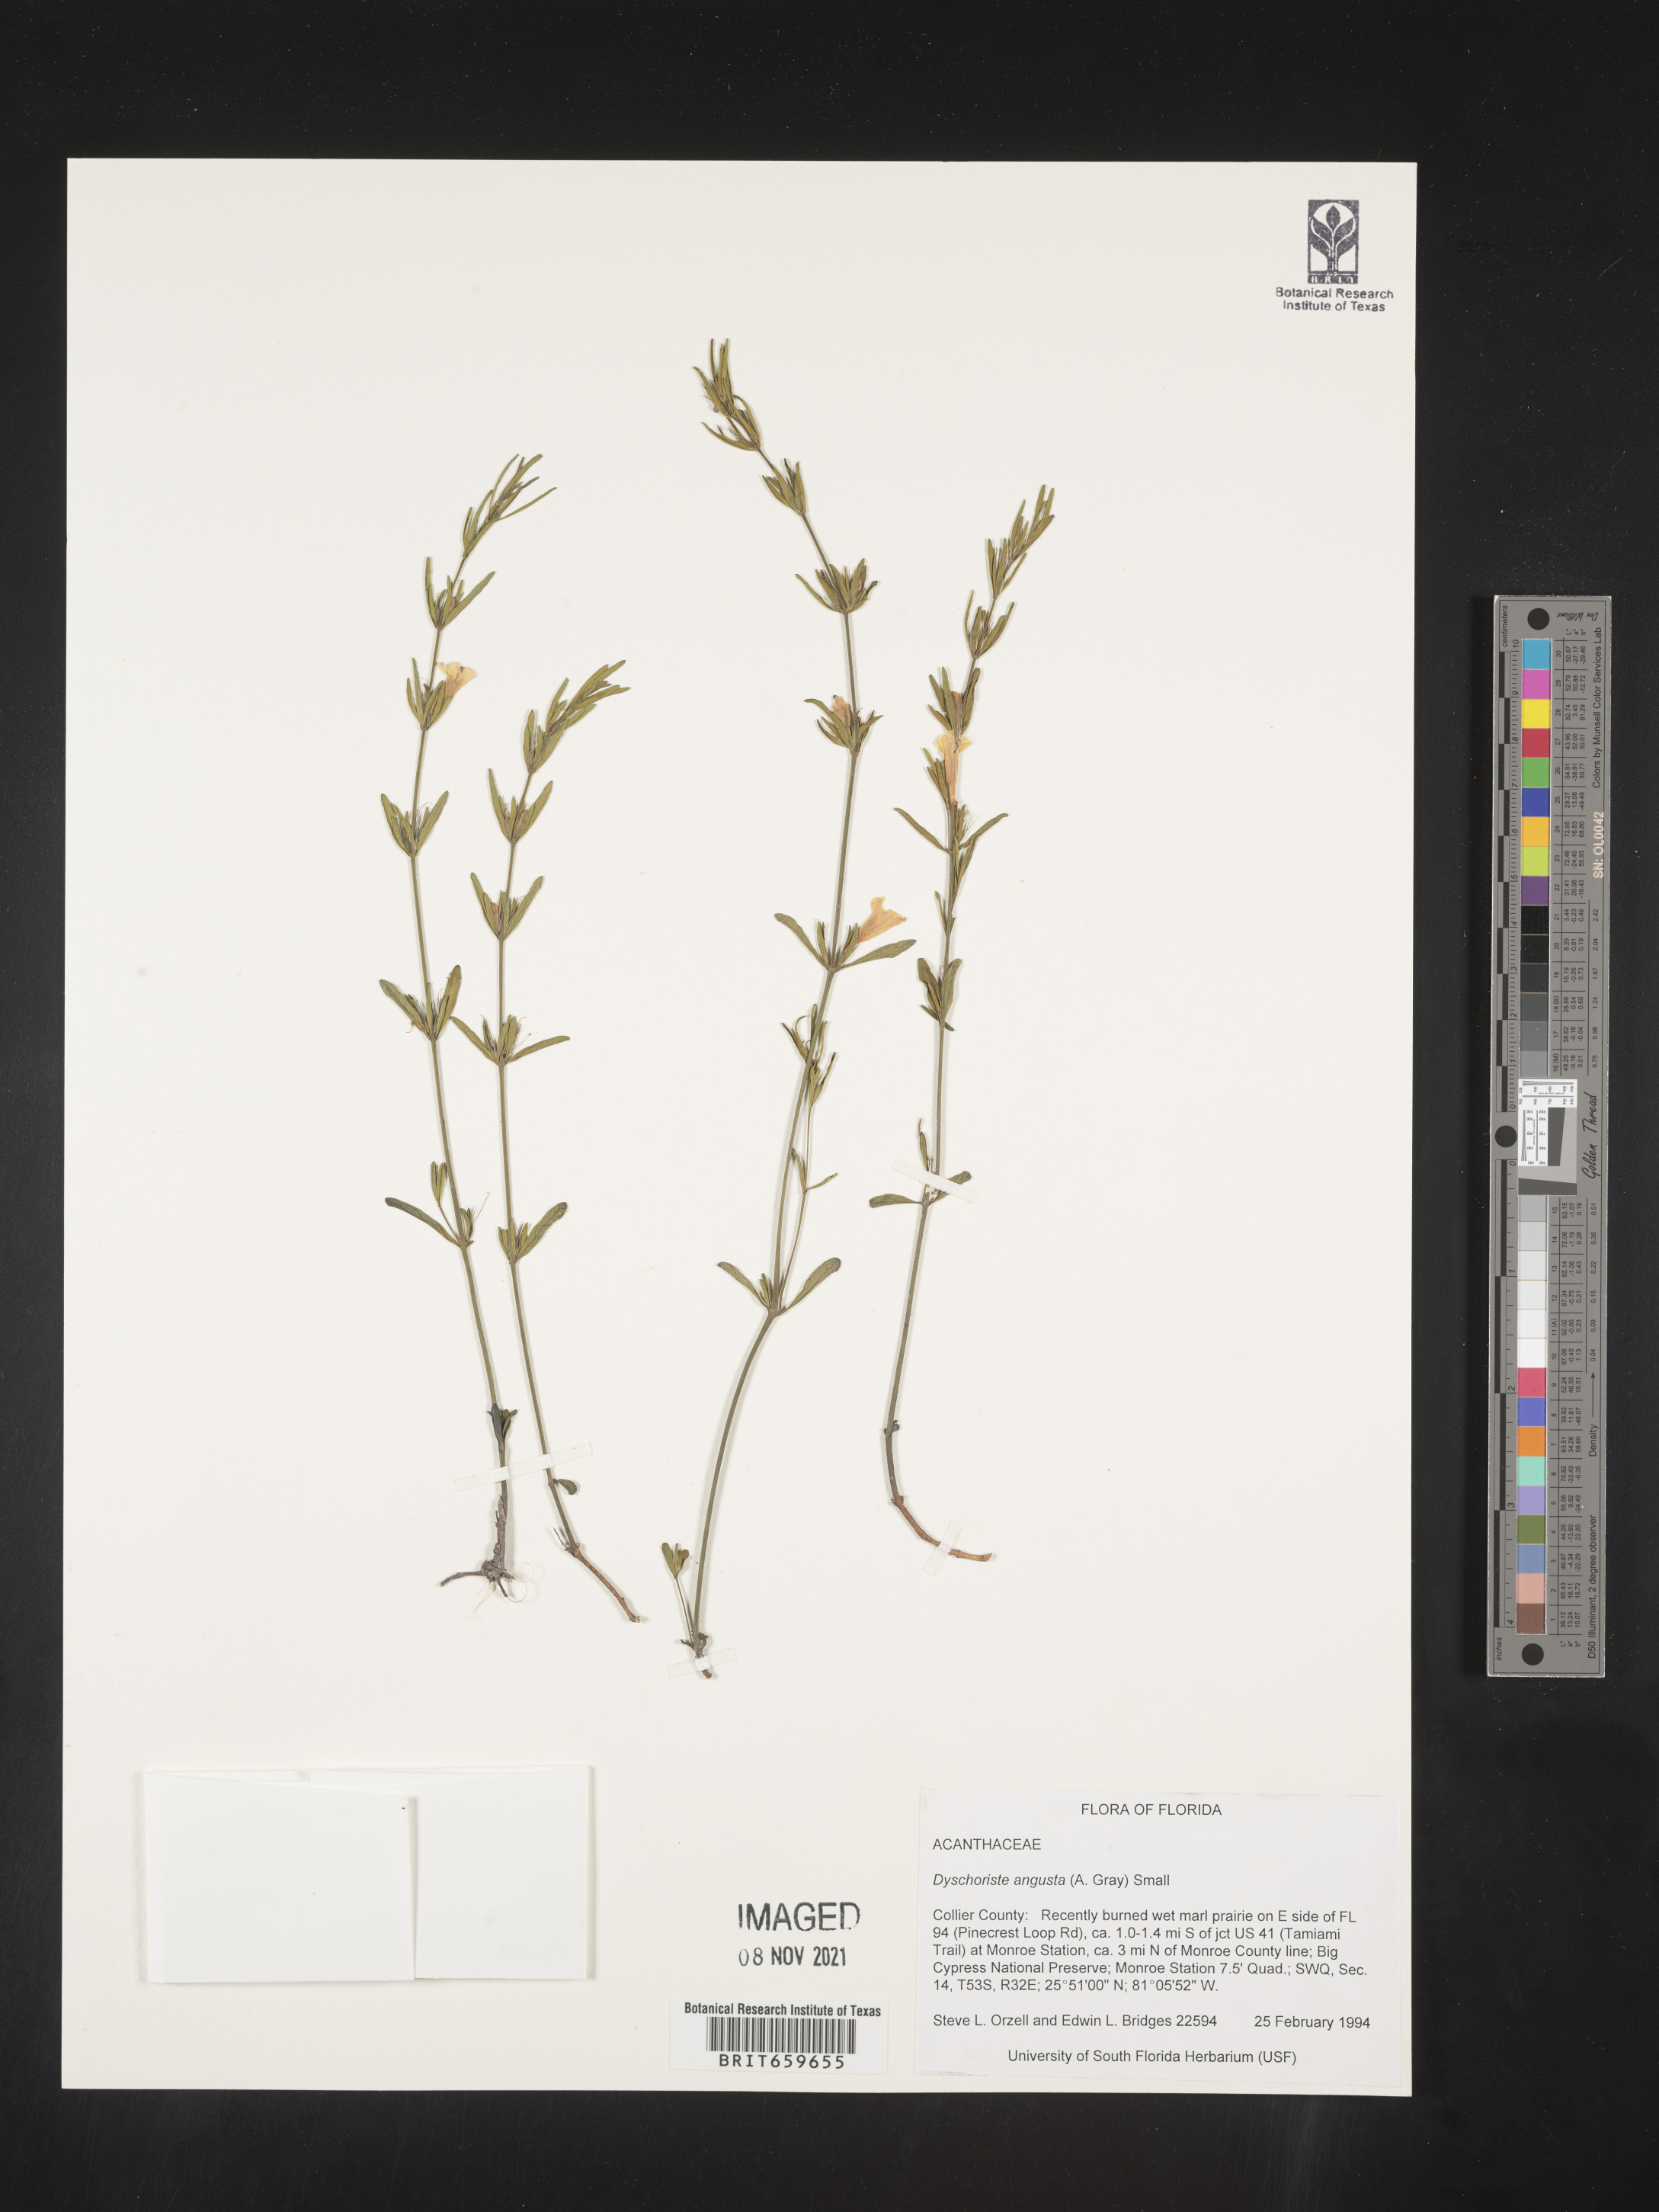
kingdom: Plantae
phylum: Tracheophyta
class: Magnoliopsida
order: Lamiales
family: Acanthaceae
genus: Dyschoriste
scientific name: Dyschoriste angusta
